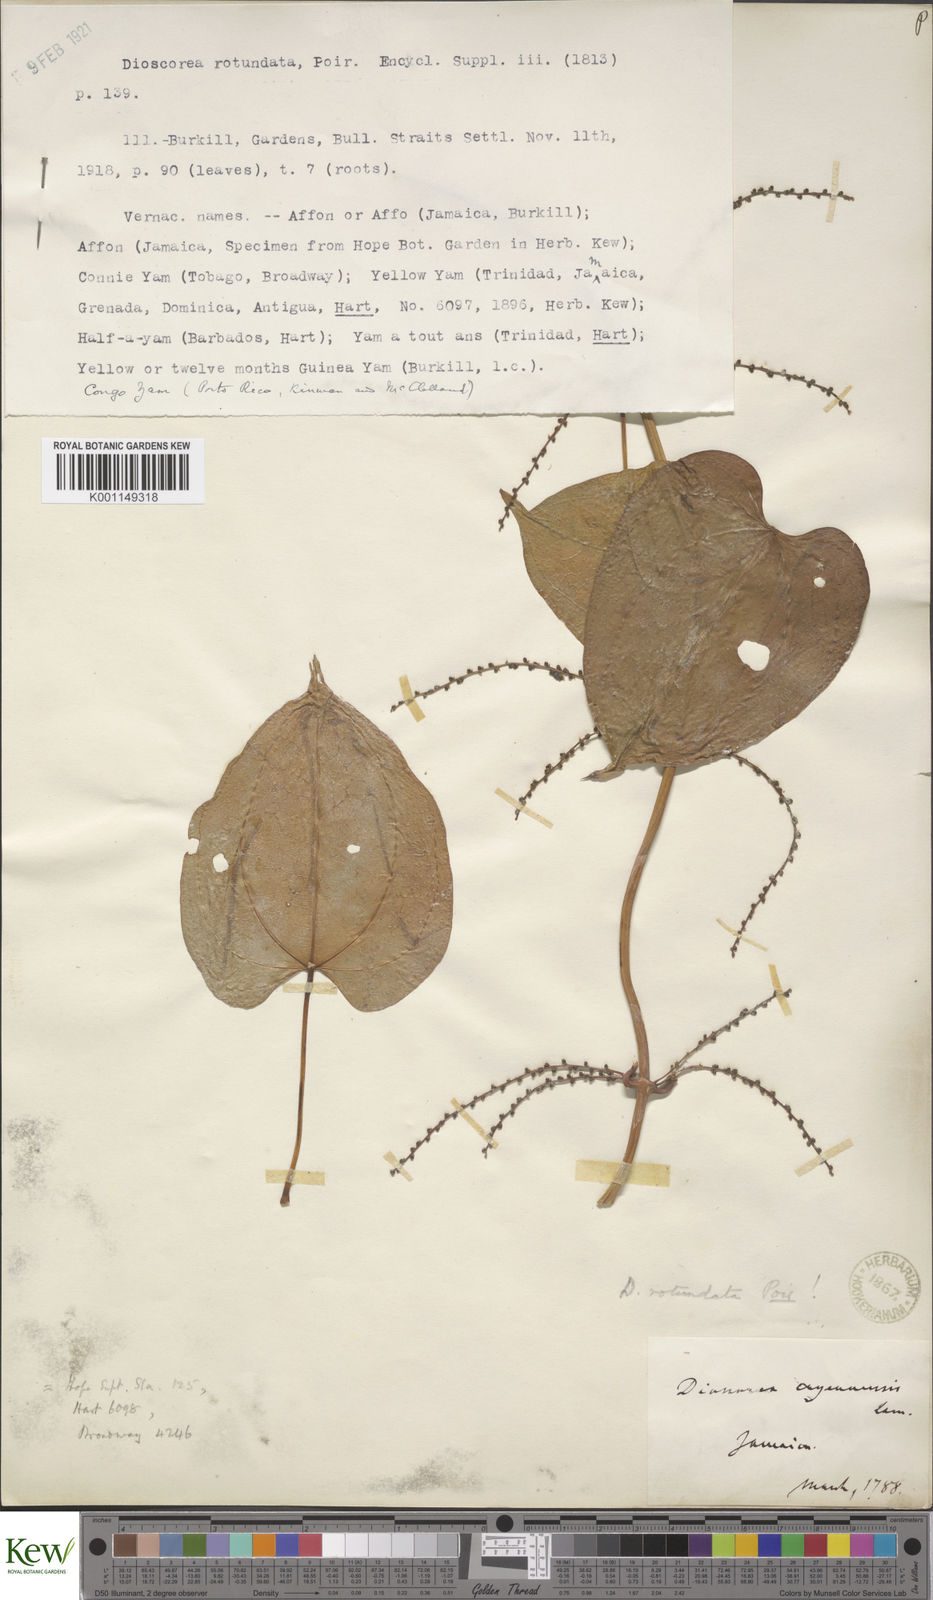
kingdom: Plantae
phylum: Tracheophyta
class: Liliopsida
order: Dioscoreales
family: Dioscoreaceae
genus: Dioscorea
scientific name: Dioscorea cayenensis
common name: Attoto yam
